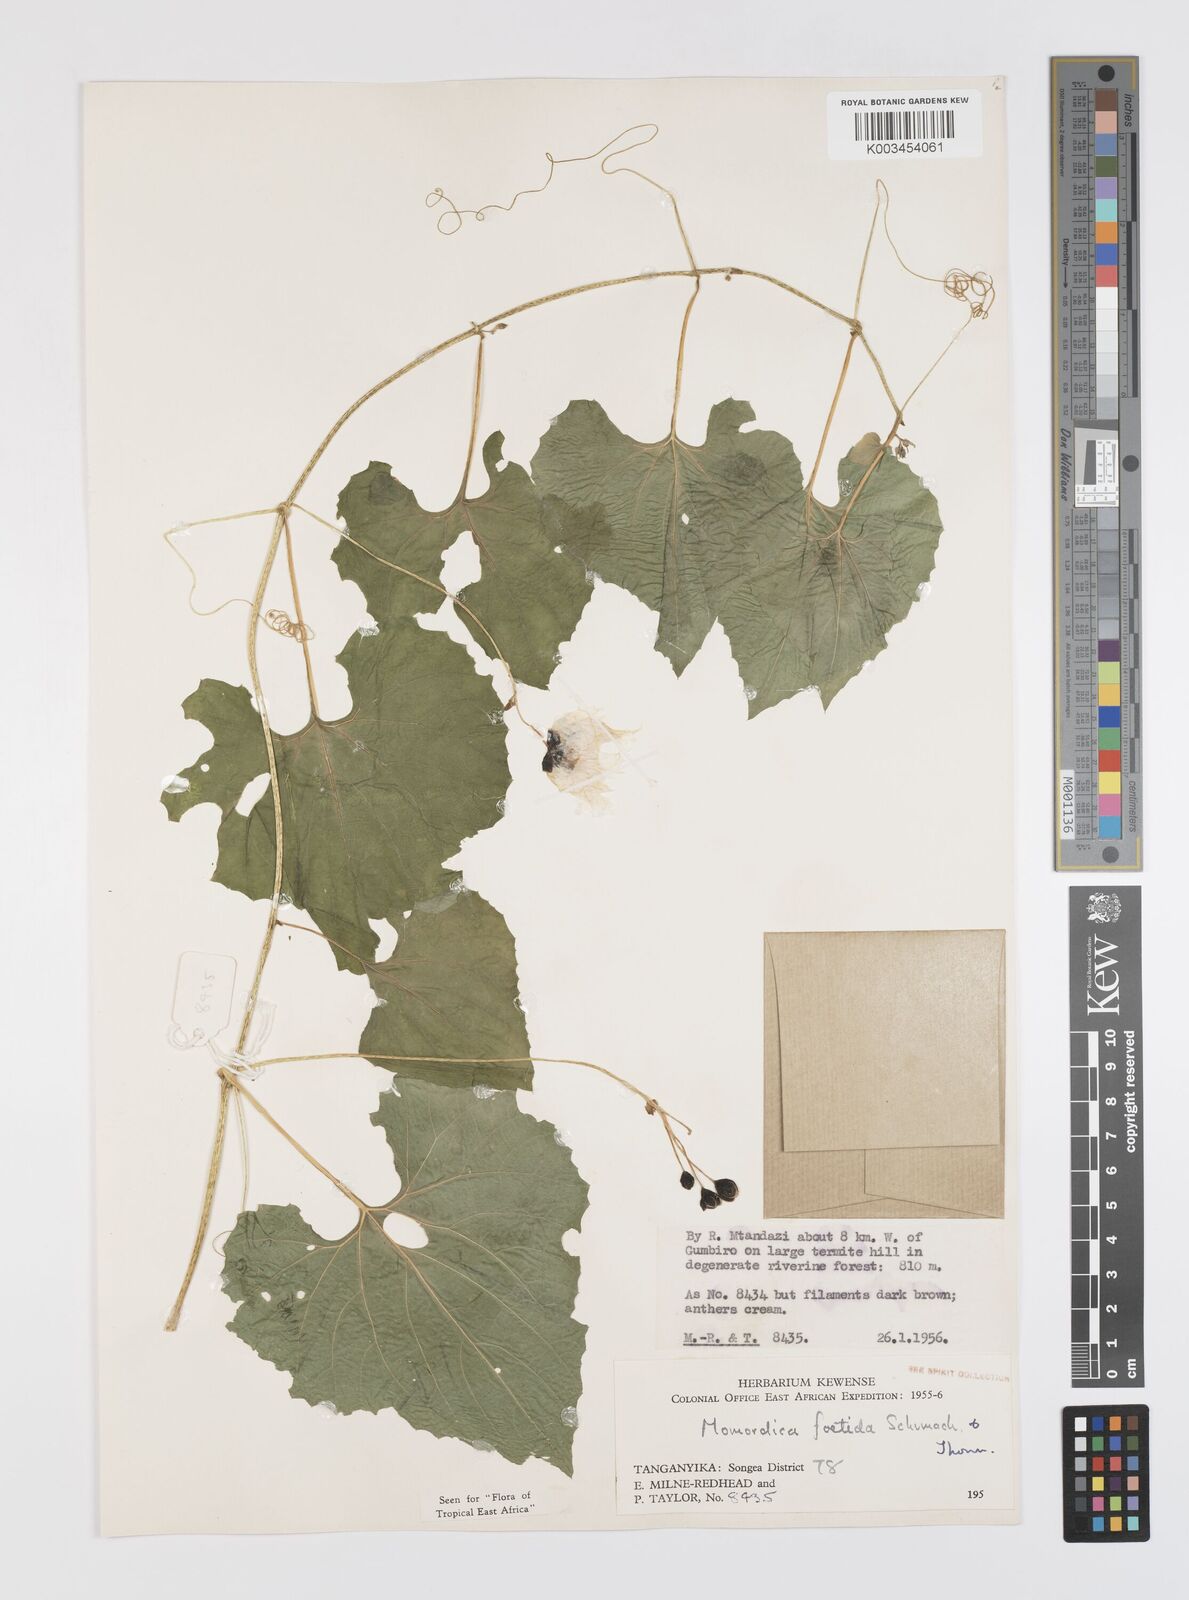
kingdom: Plantae
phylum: Tracheophyta
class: Magnoliopsida
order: Cucurbitales
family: Cucurbitaceae
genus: Momordica
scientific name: Momordica foetida
